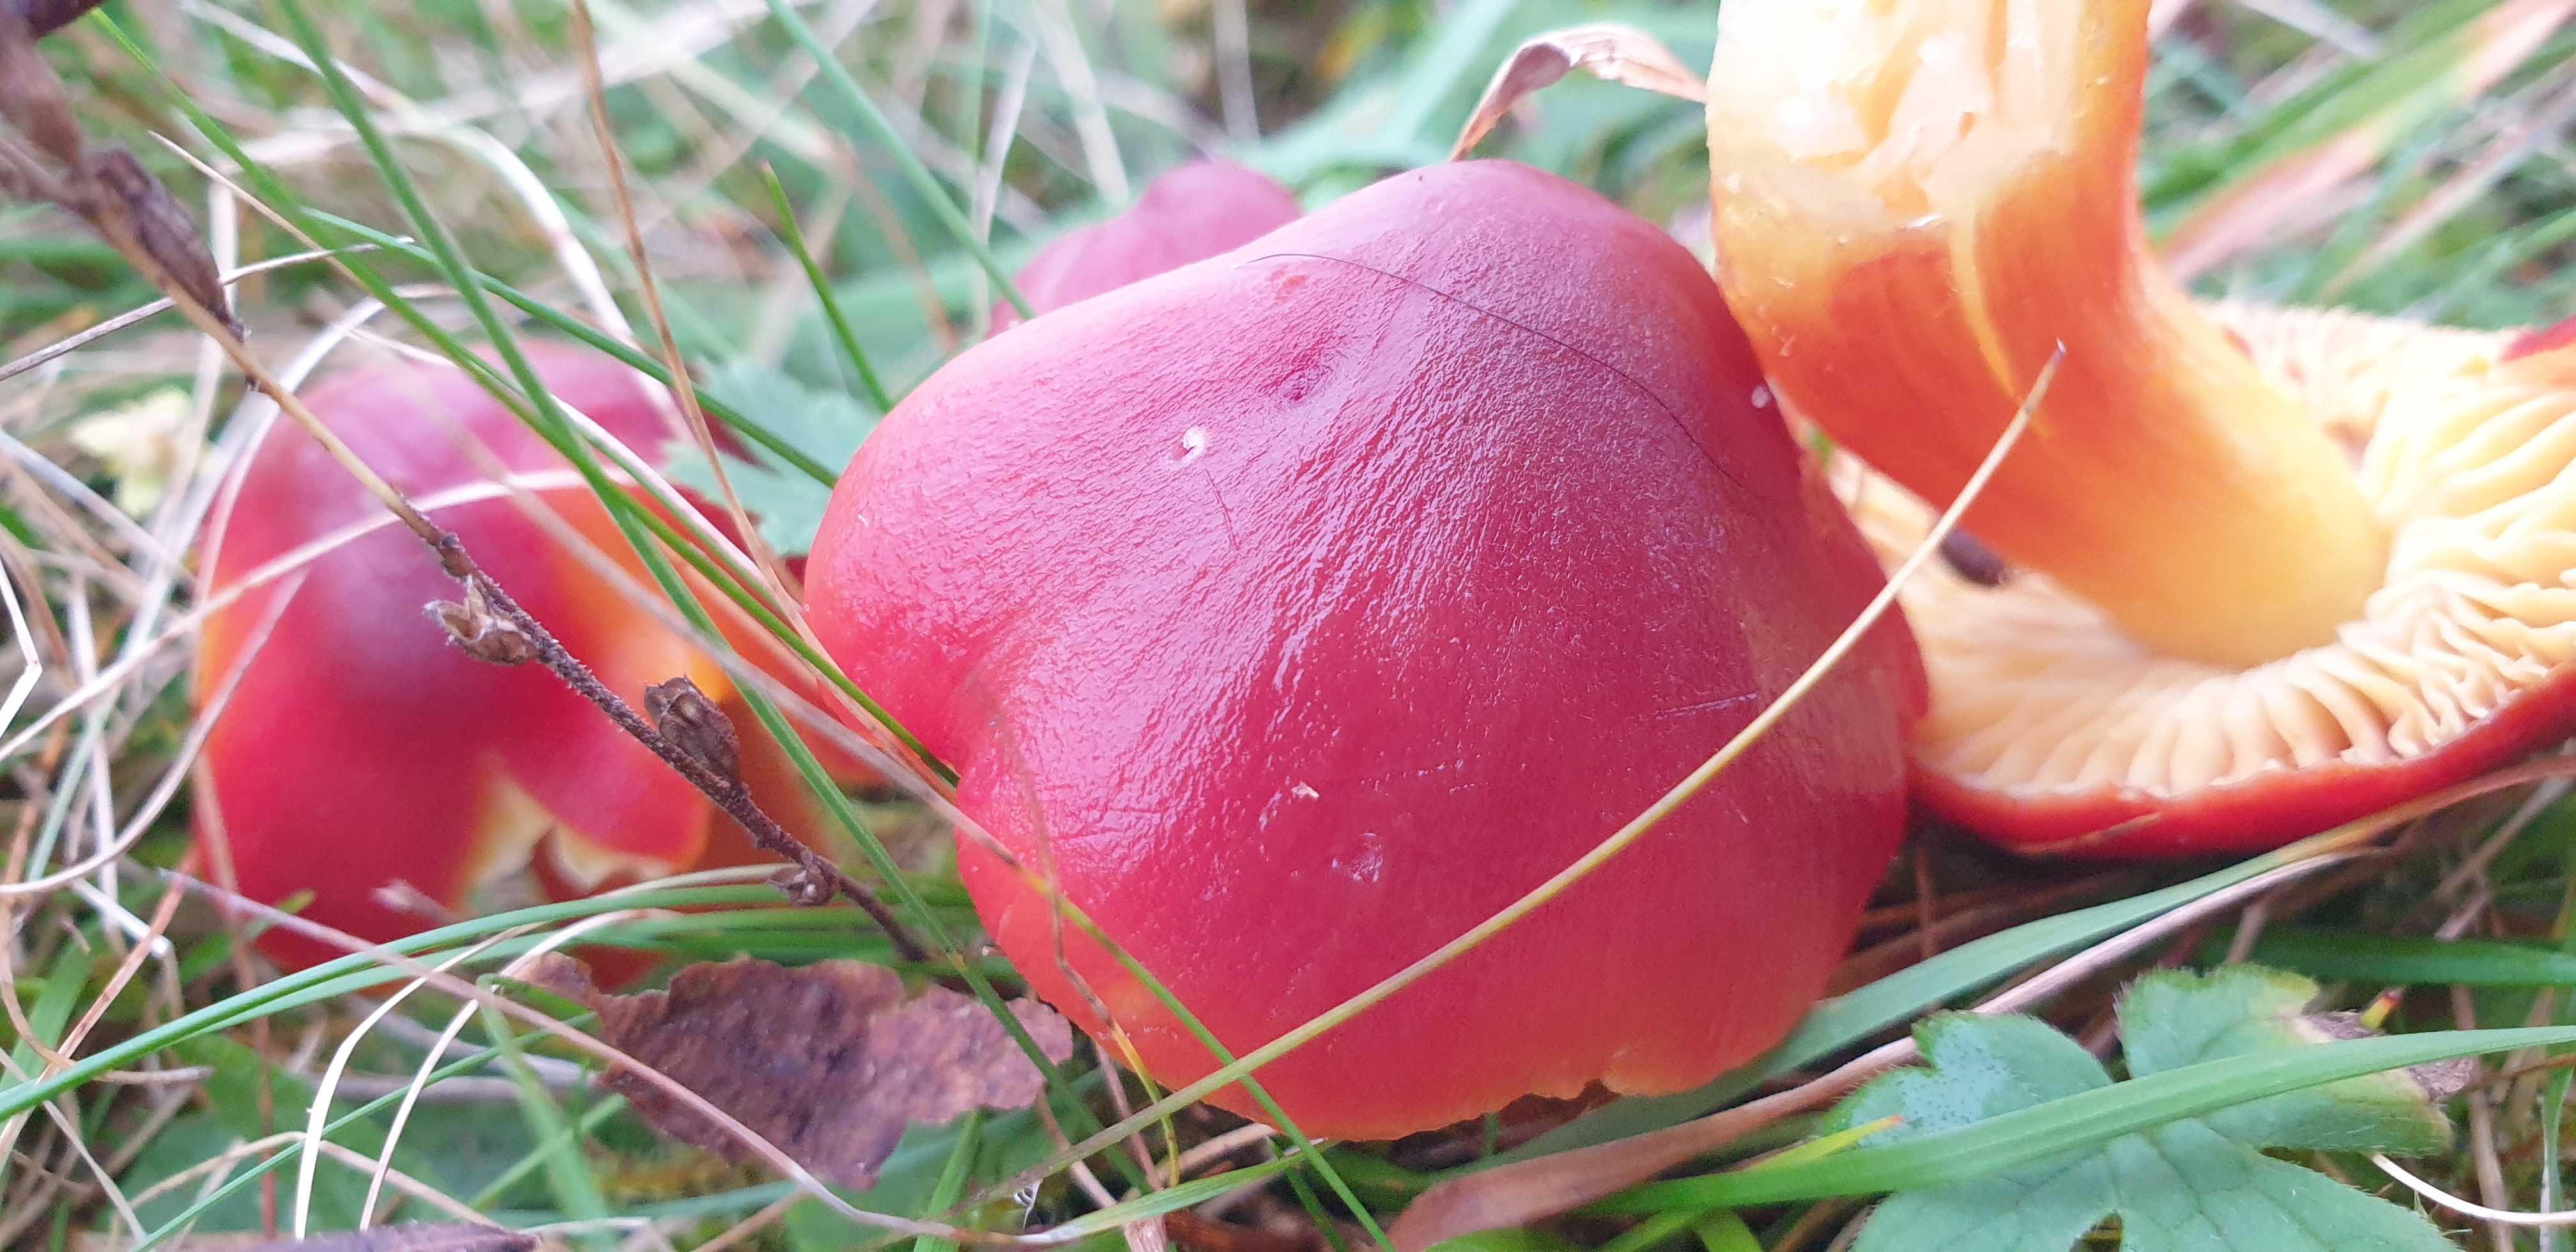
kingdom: Fungi
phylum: Basidiomycota
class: Agaricomycetes
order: Agaricales
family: Hygrophoraceae
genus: Hygrocybe
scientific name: Hygrocybe punicea
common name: skarlagen-vokshat
